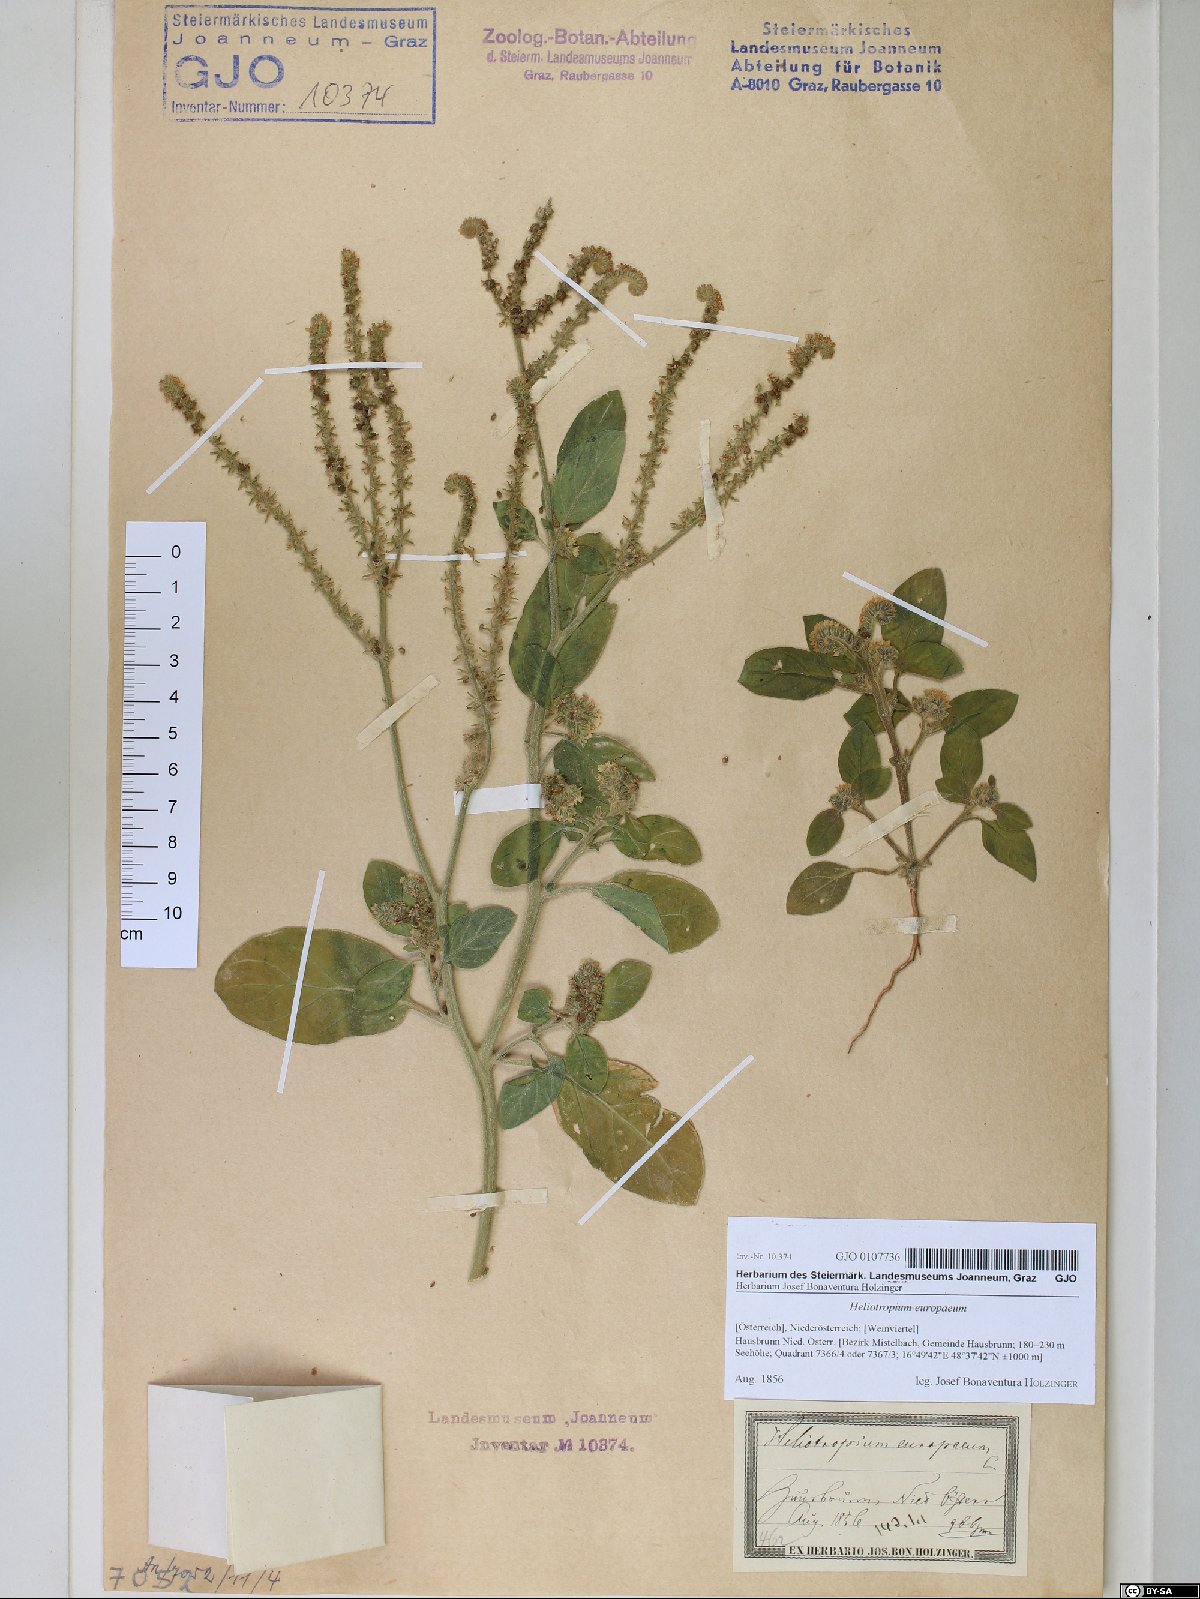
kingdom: Plantae
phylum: Tracheophyta
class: Magnoliopsida
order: Boraginales
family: Heliotropiaceae
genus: Heliotropium
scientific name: Heliotropium europaeum
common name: European heliotrope
